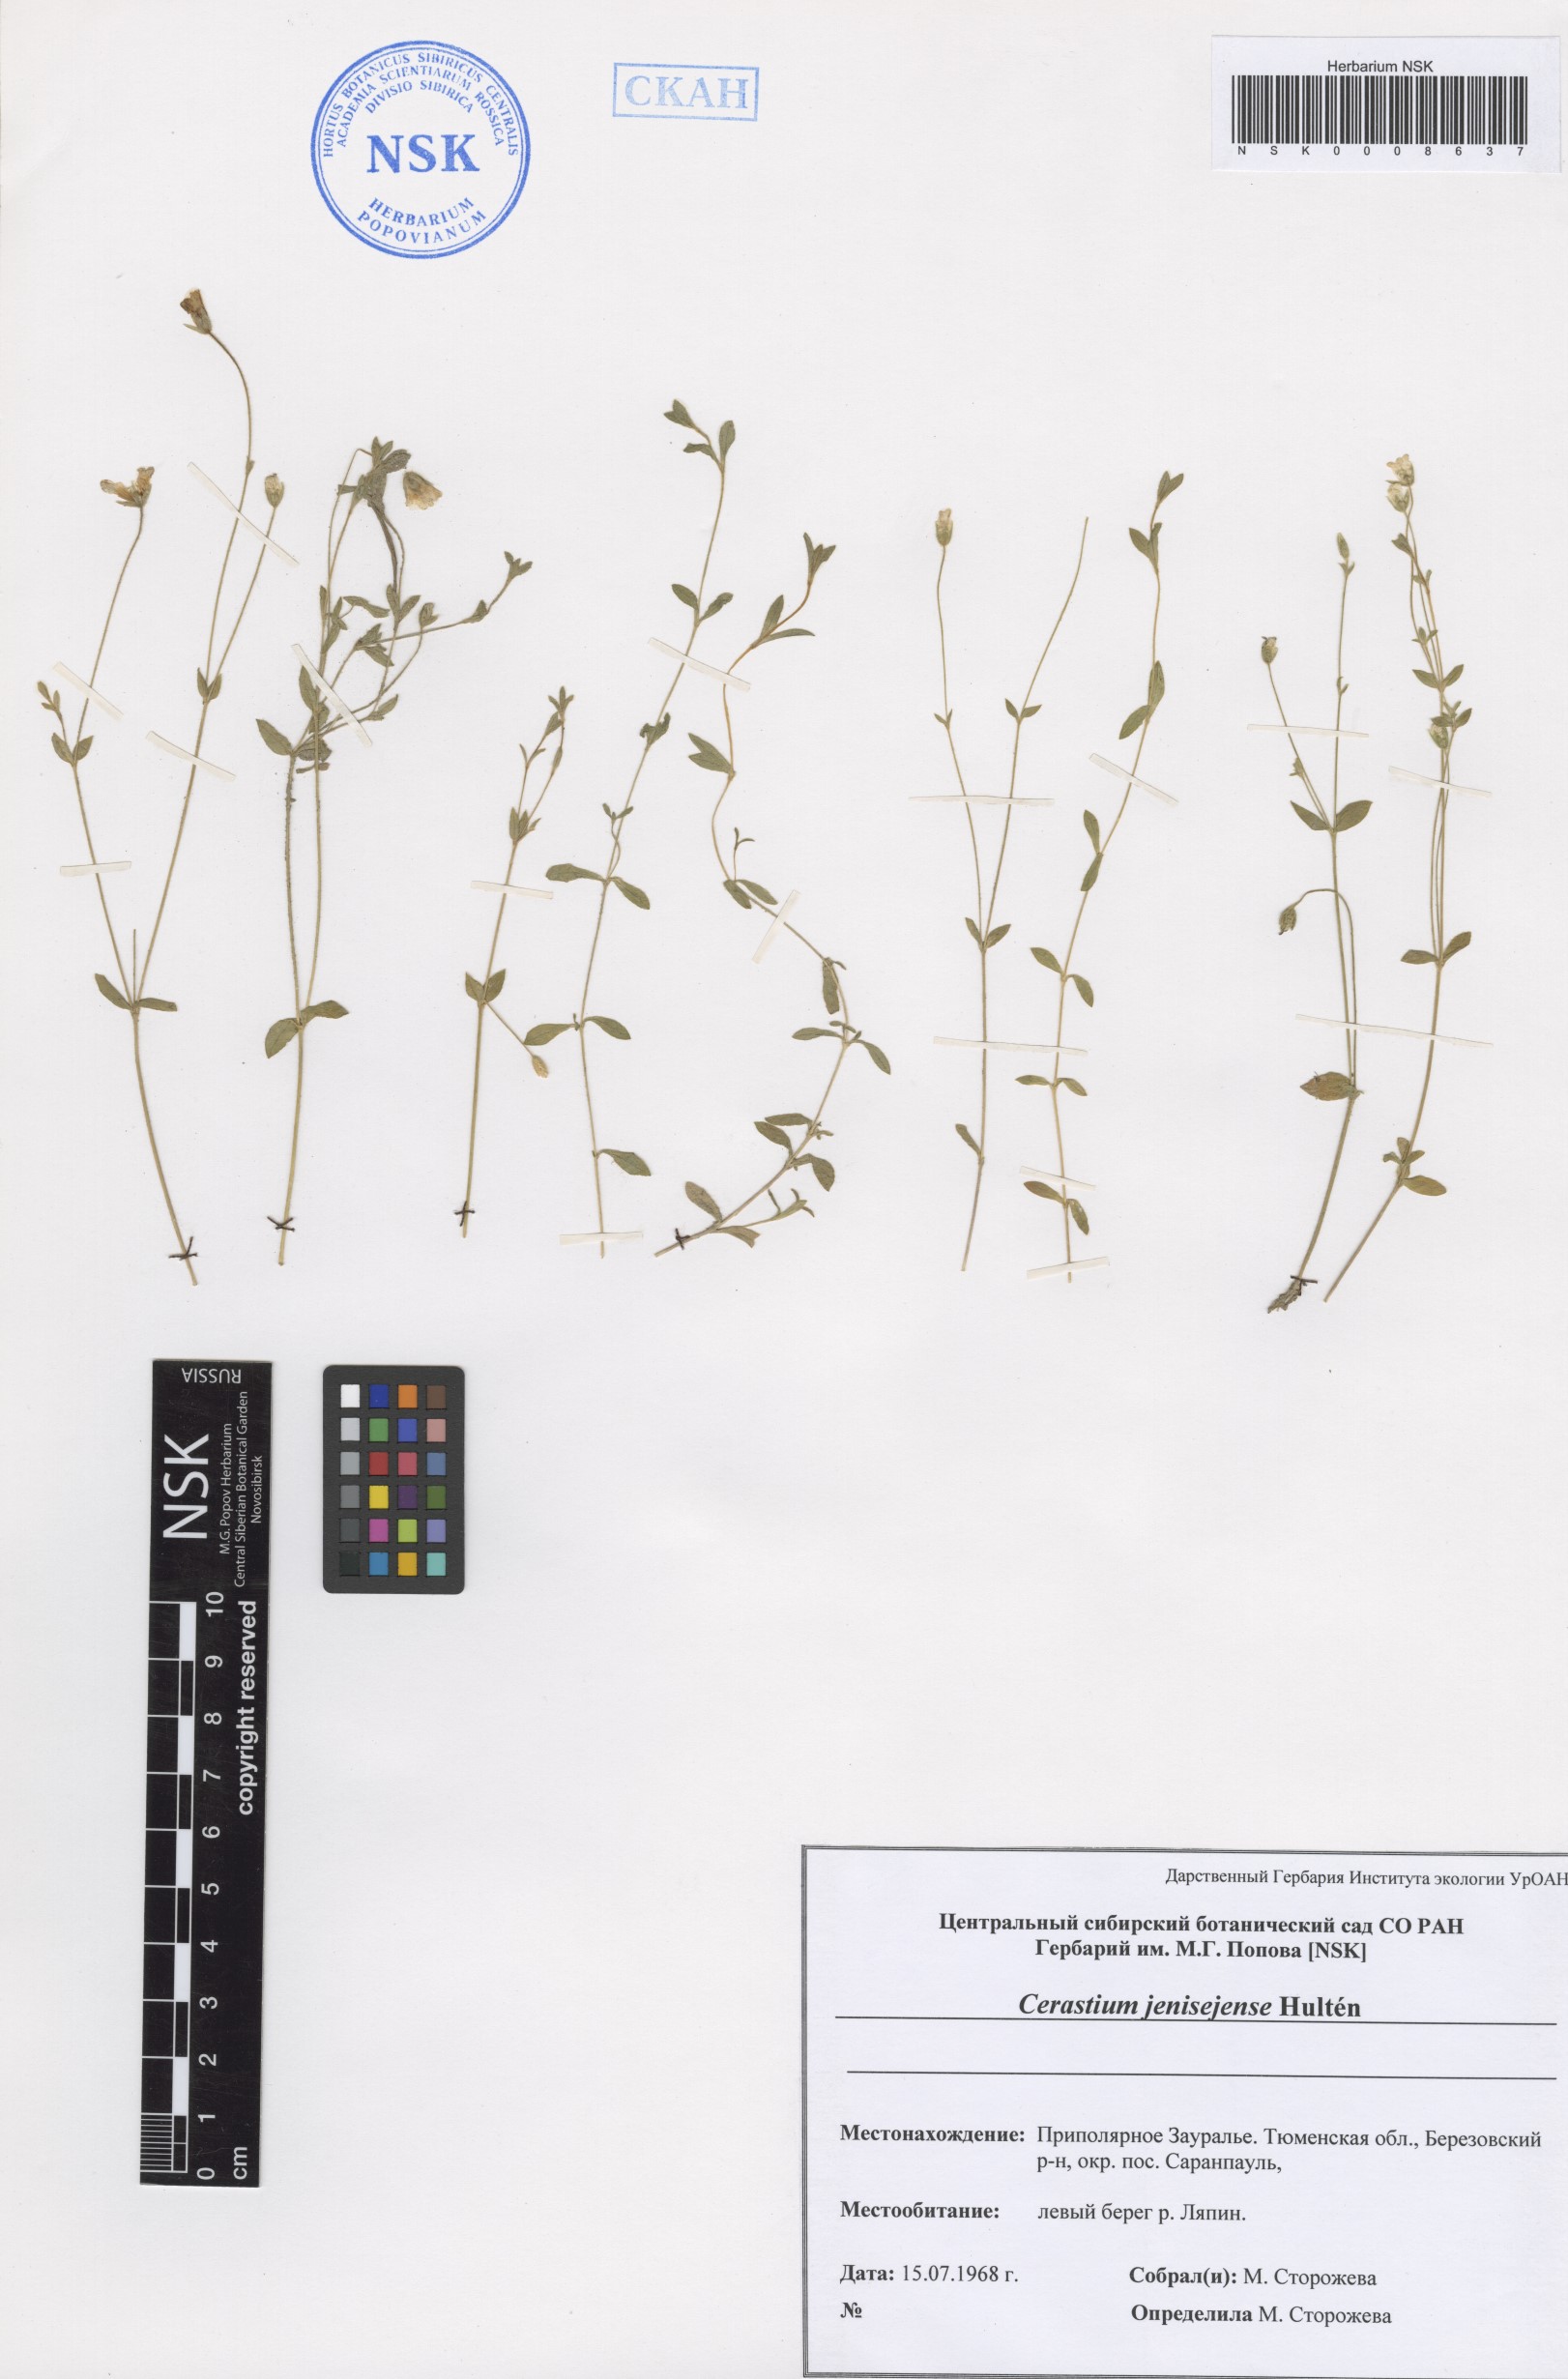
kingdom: Plantae
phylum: Tracheophyta
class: Magnoliopsida
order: Caryophyllales
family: Caryophyllaceae
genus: Cerastium
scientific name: Cerastium regelii
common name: Regel's chickweed
